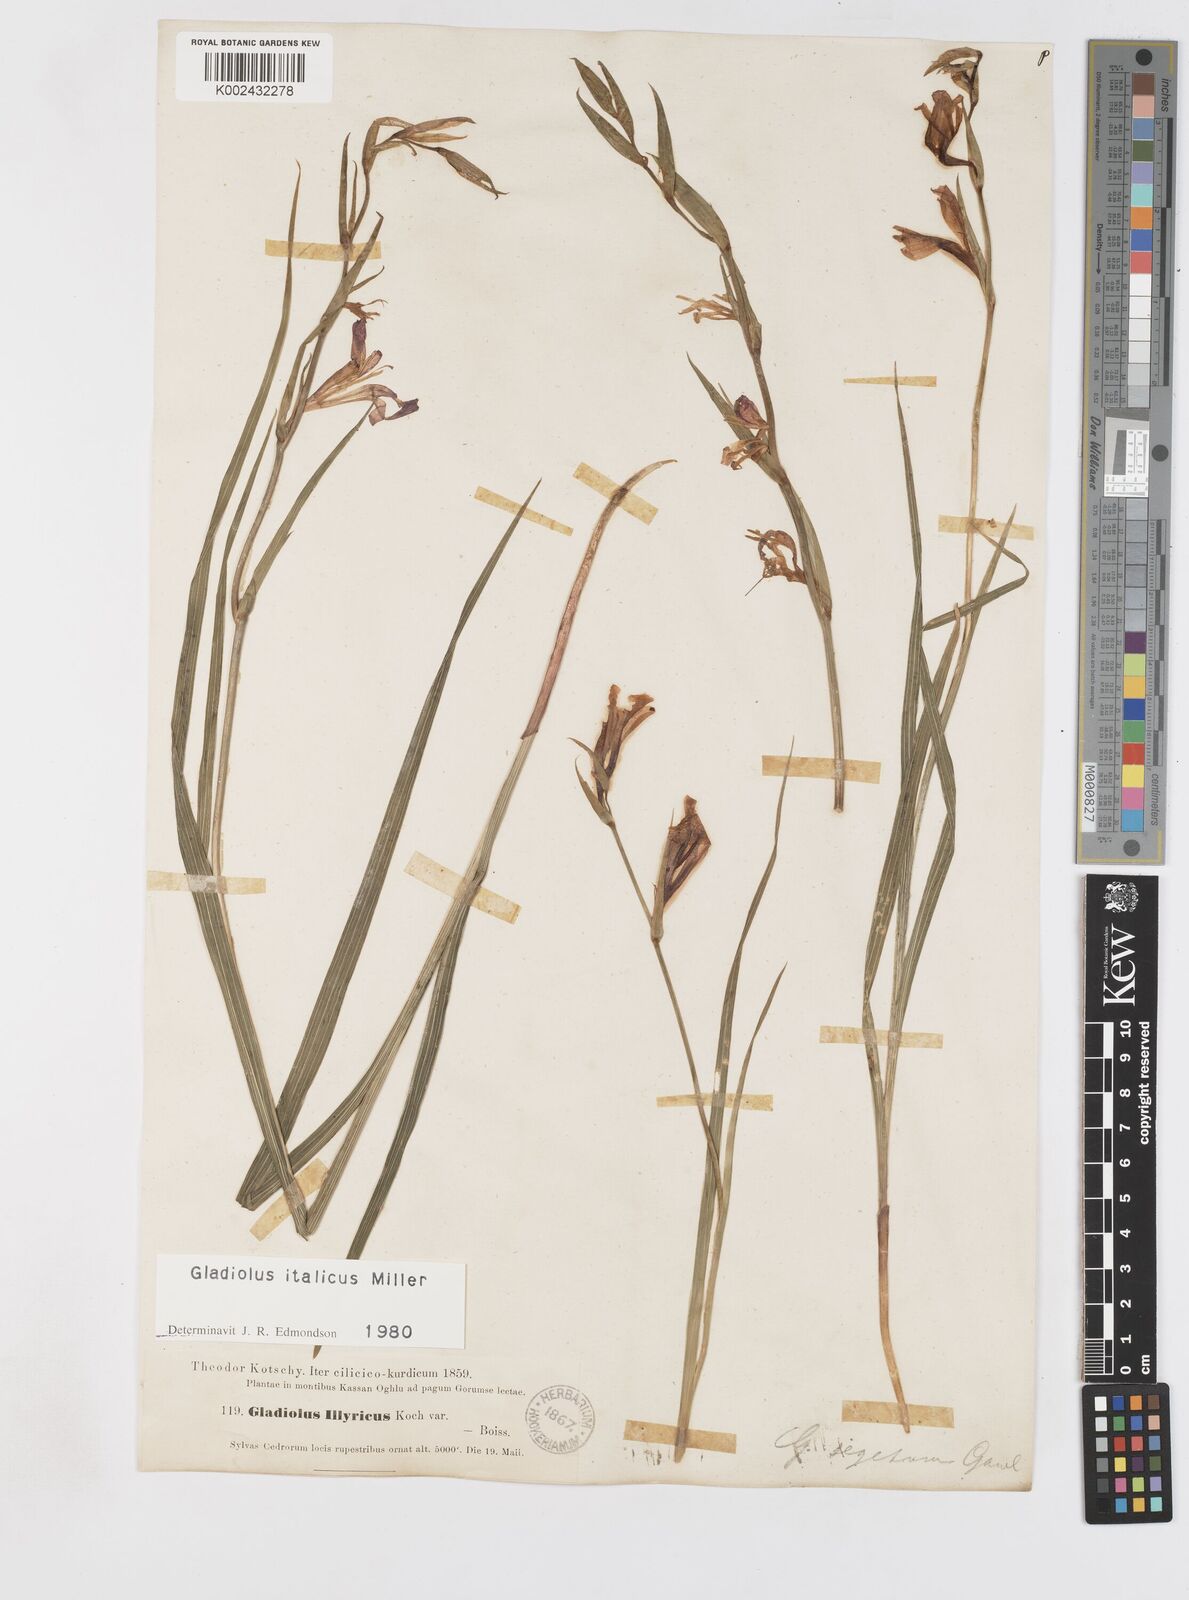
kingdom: Plantae
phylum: Tracheophyta
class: Liliopsida
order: Asparagales
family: Iridaceae
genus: Gladiolus
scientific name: Gladiolus italicus
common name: Field gladiolus
